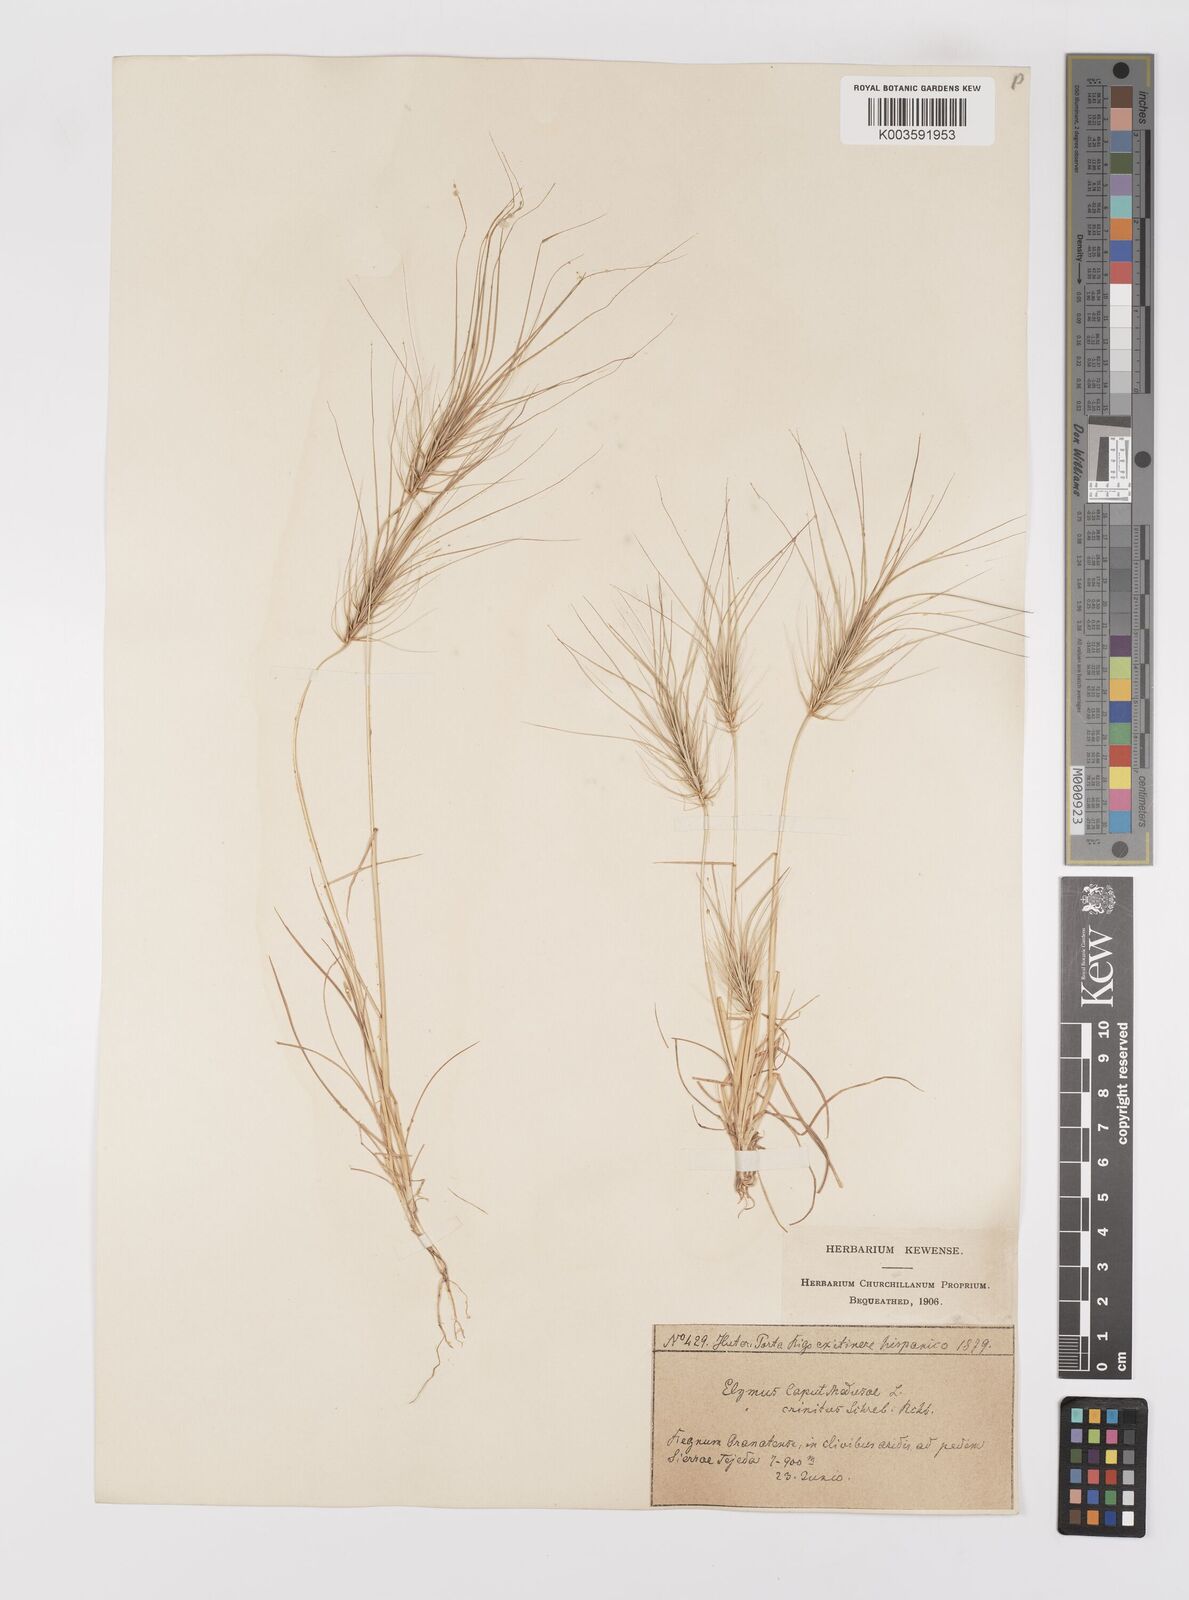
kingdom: Plantae
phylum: Tracheophyta
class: Liliopsida
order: Poales
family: Poaceae
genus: Taeniatherum
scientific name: Taeniatherum caput-medusae
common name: Medusahead
